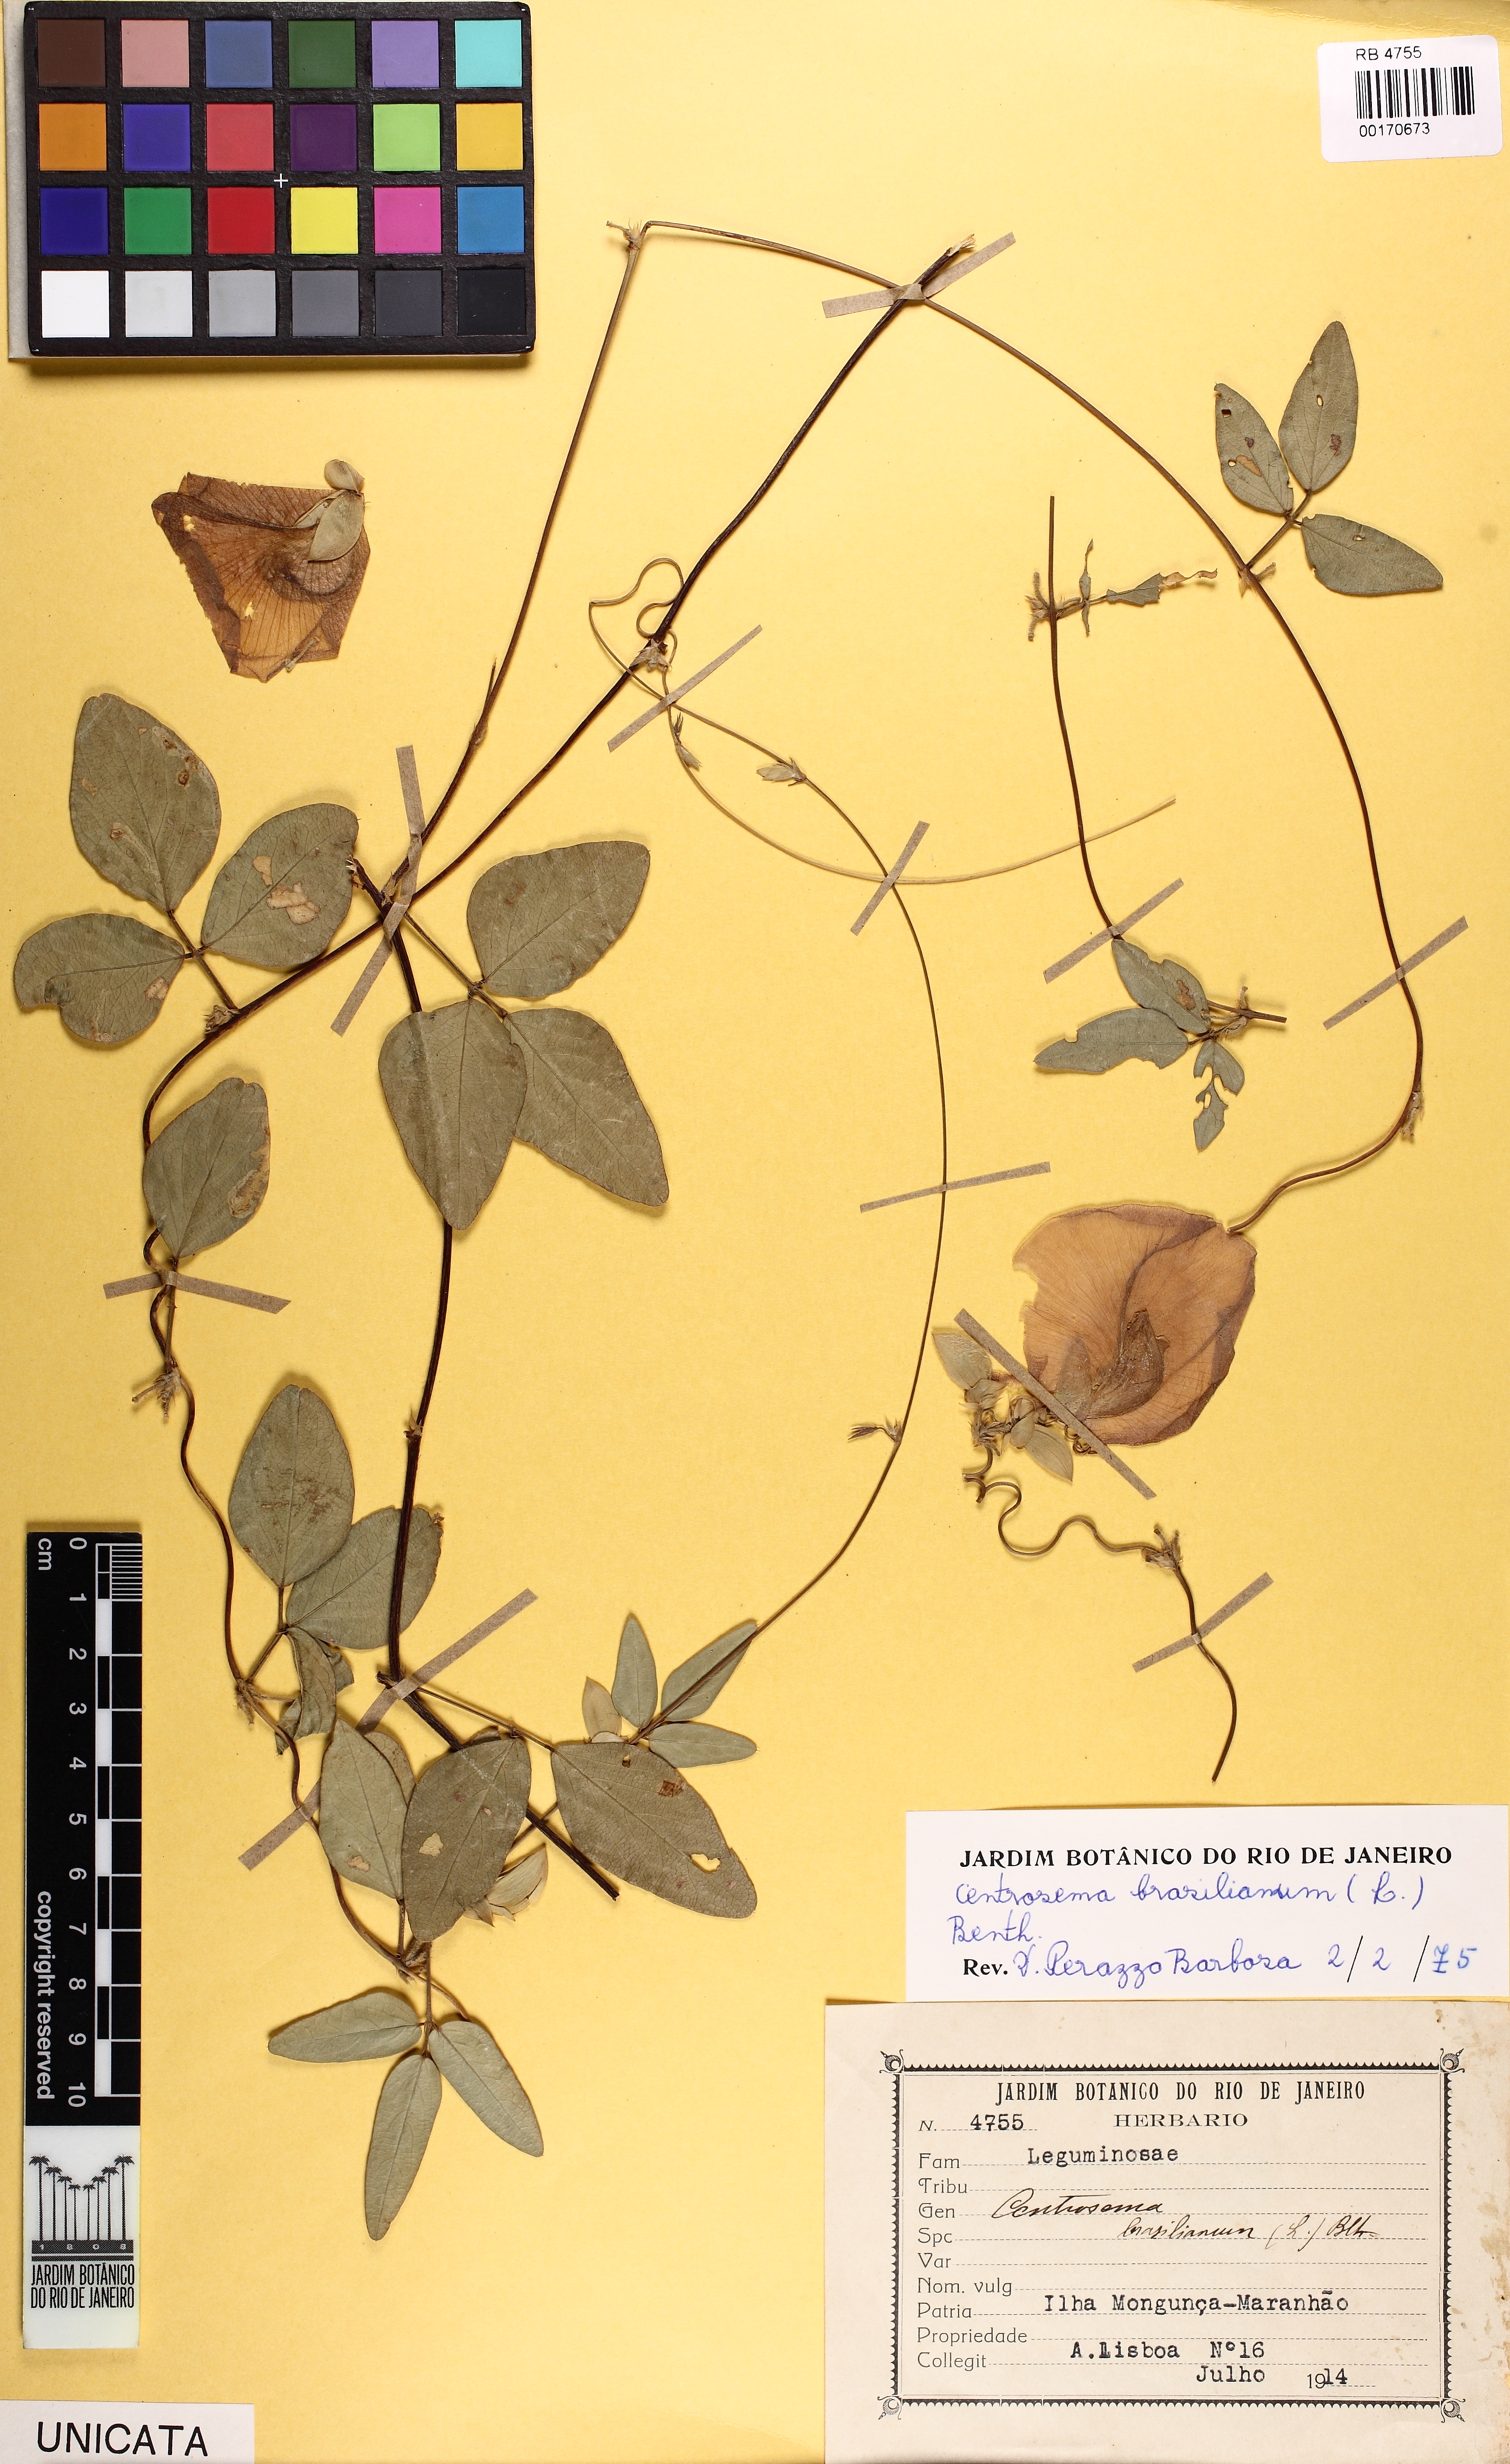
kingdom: Plantae
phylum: Tracheophyta
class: Magnoliopsida
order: Fabales
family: Fabaceae
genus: Centrosema
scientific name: Centrosema brasilianum
